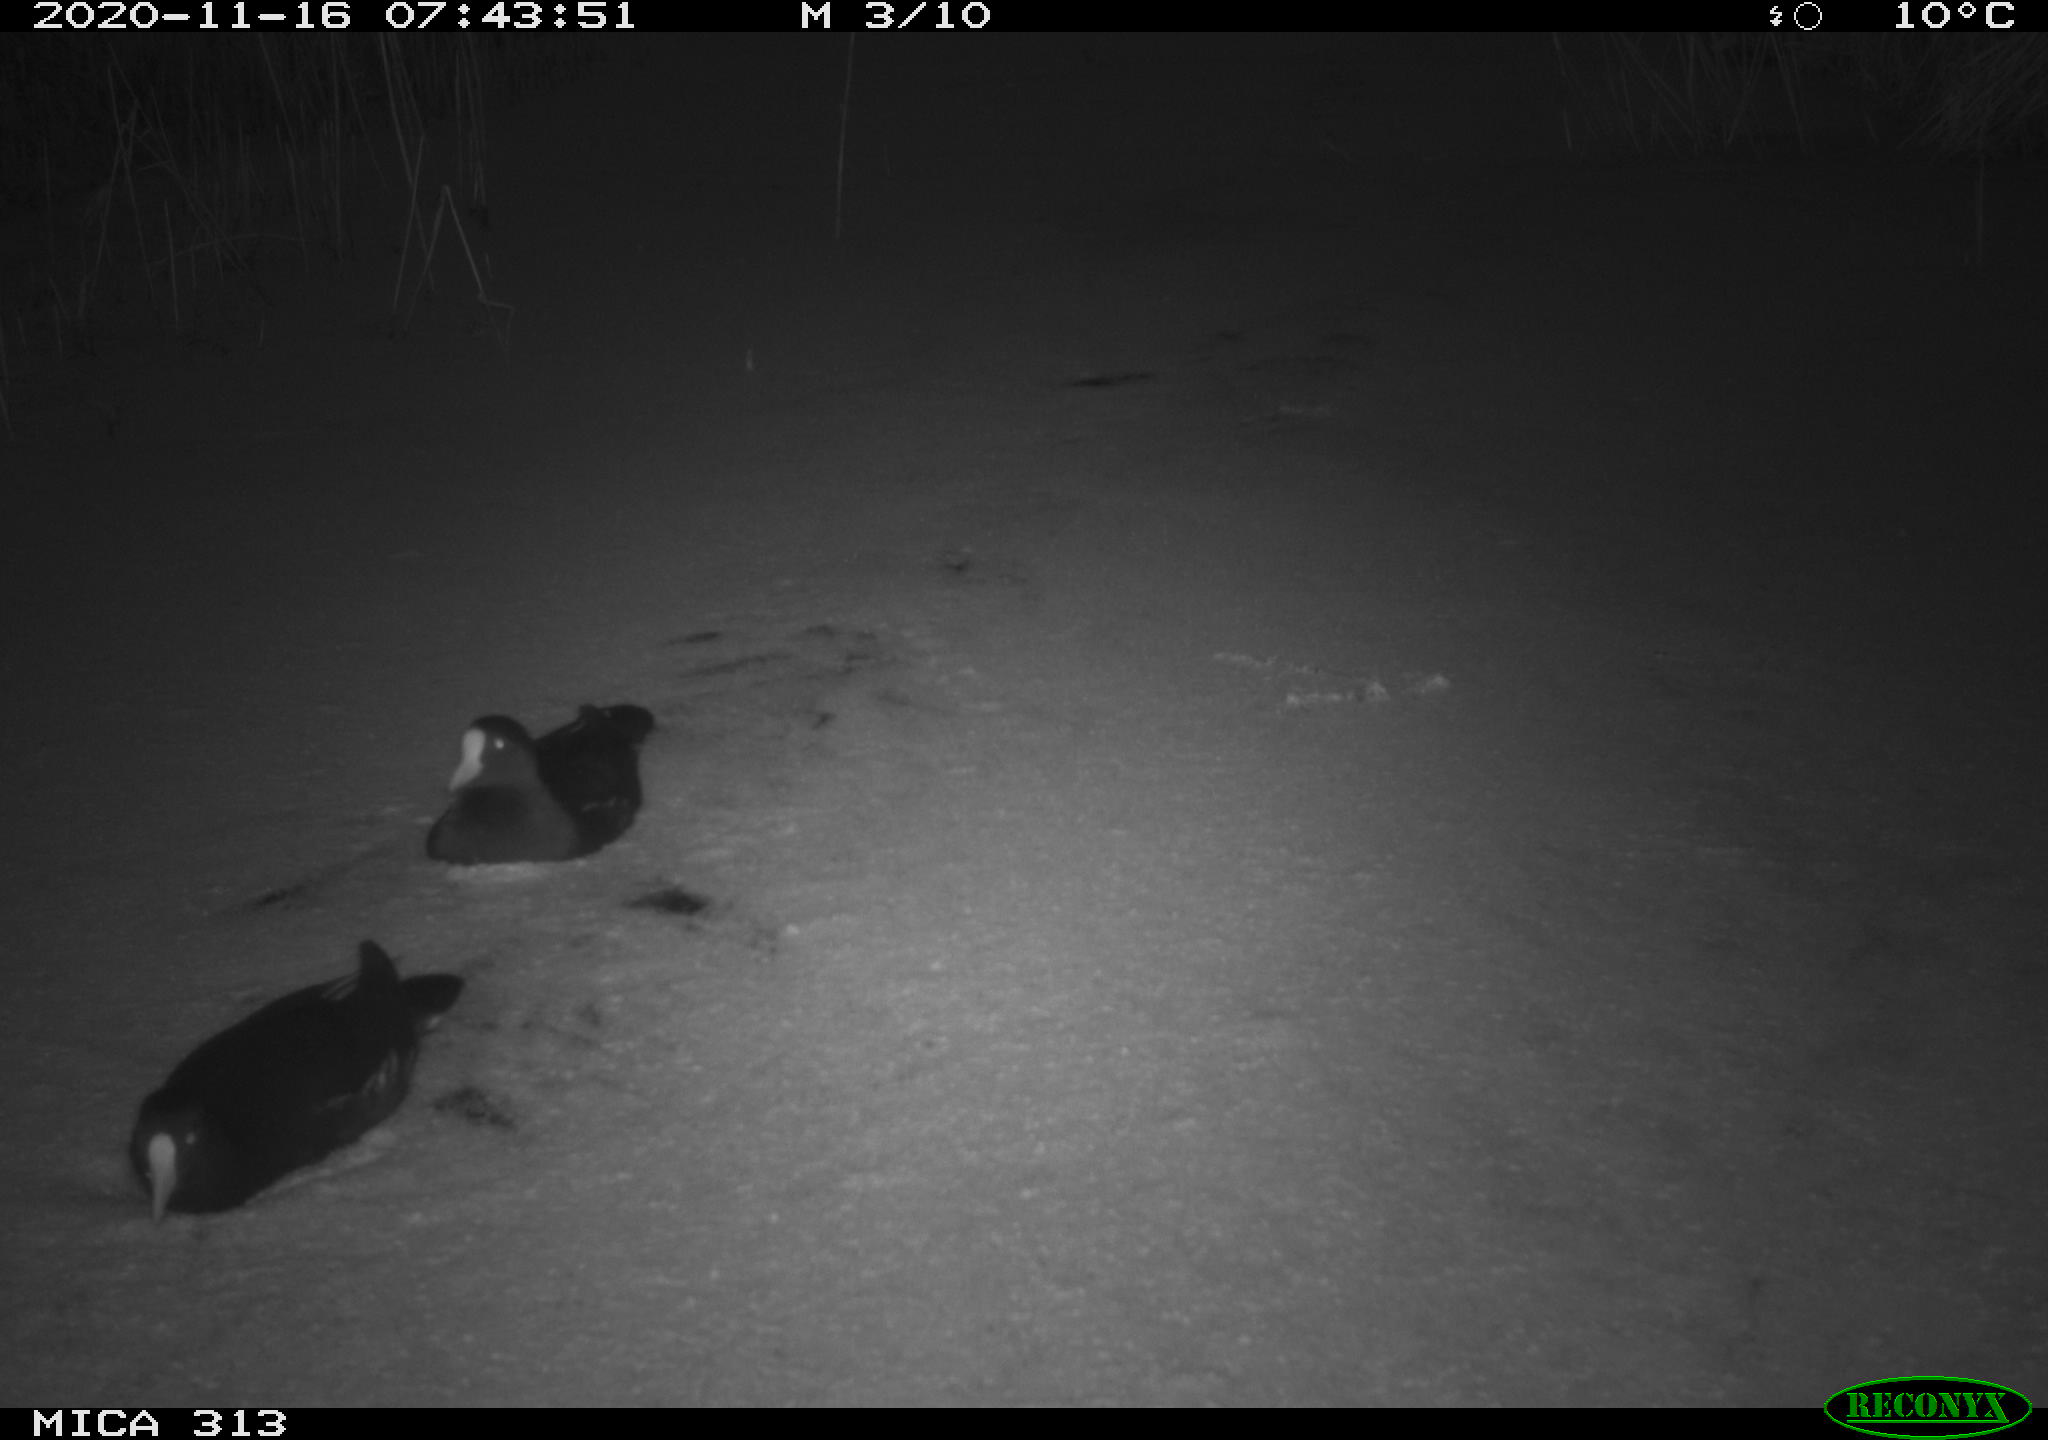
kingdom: Animalia
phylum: Chordata
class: Aves
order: Gruiformes
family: Rallidae
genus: Fulica
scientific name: Fulica atra
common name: Eurasian coot
